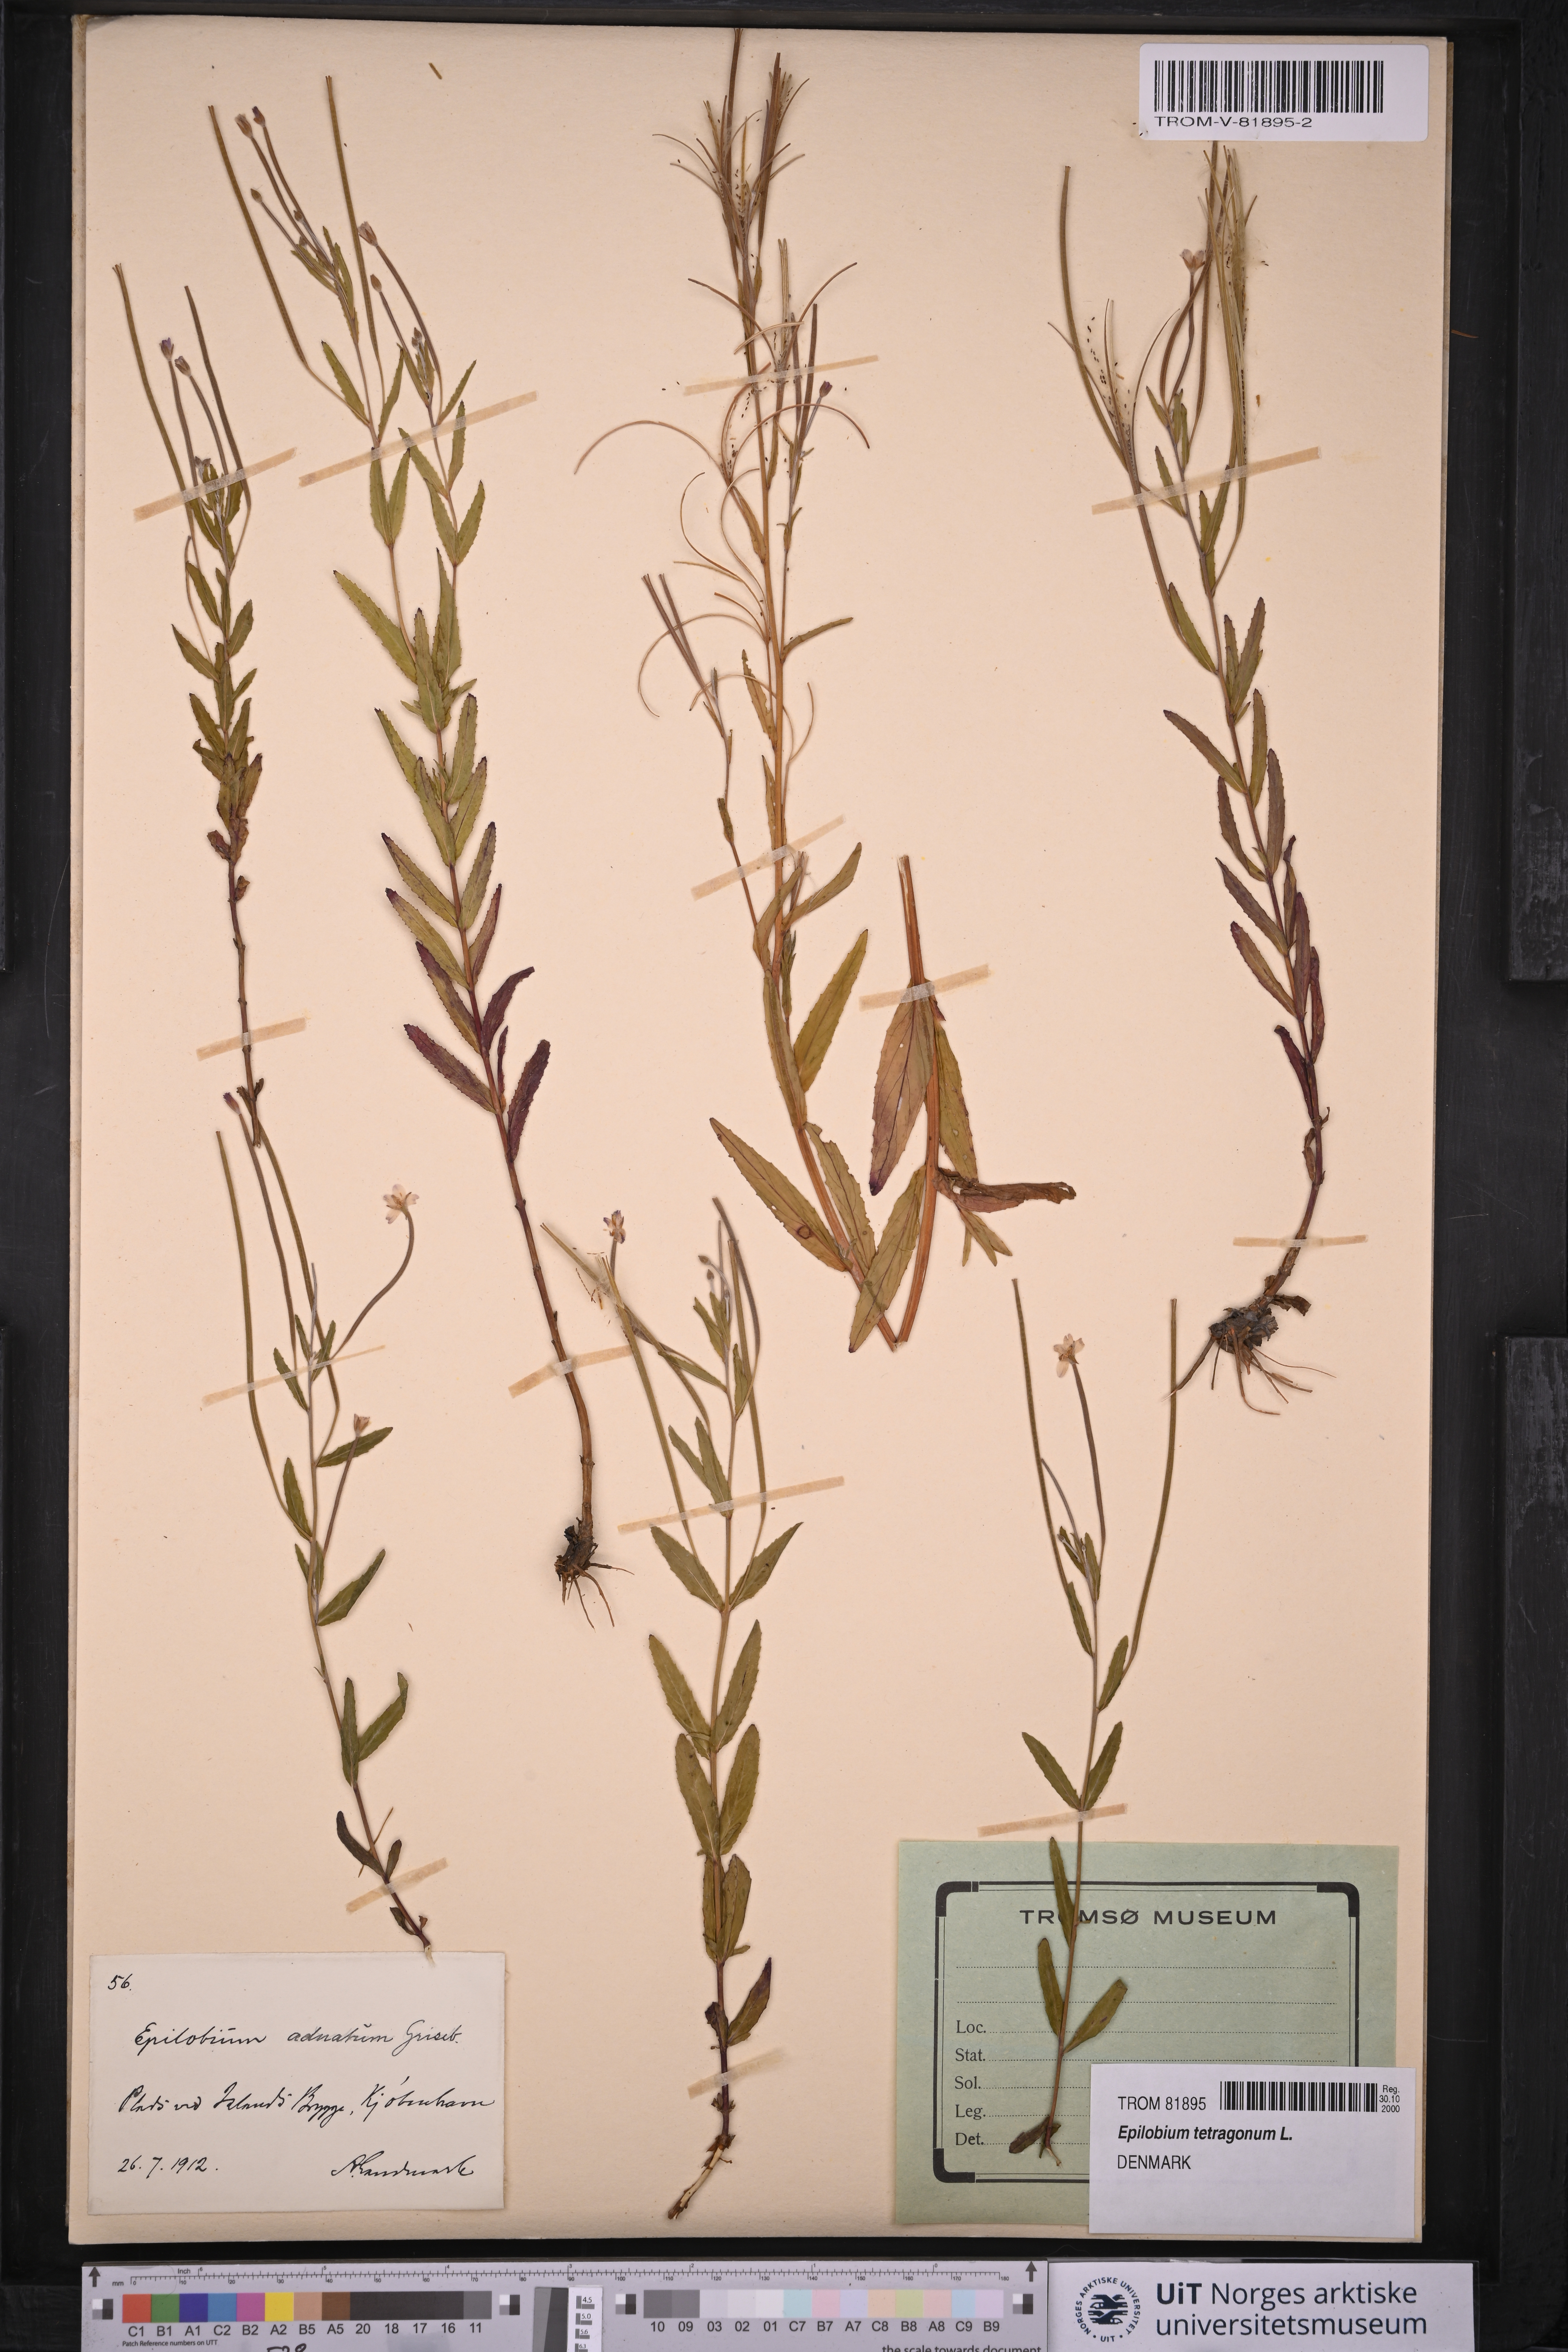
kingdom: Plantae
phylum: Tracheophyta
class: Magnoliopsida
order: Myrtales
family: Onagraceae
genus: Epilobium
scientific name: Epilobium tetragonum
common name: Square-stemmed willowherb
